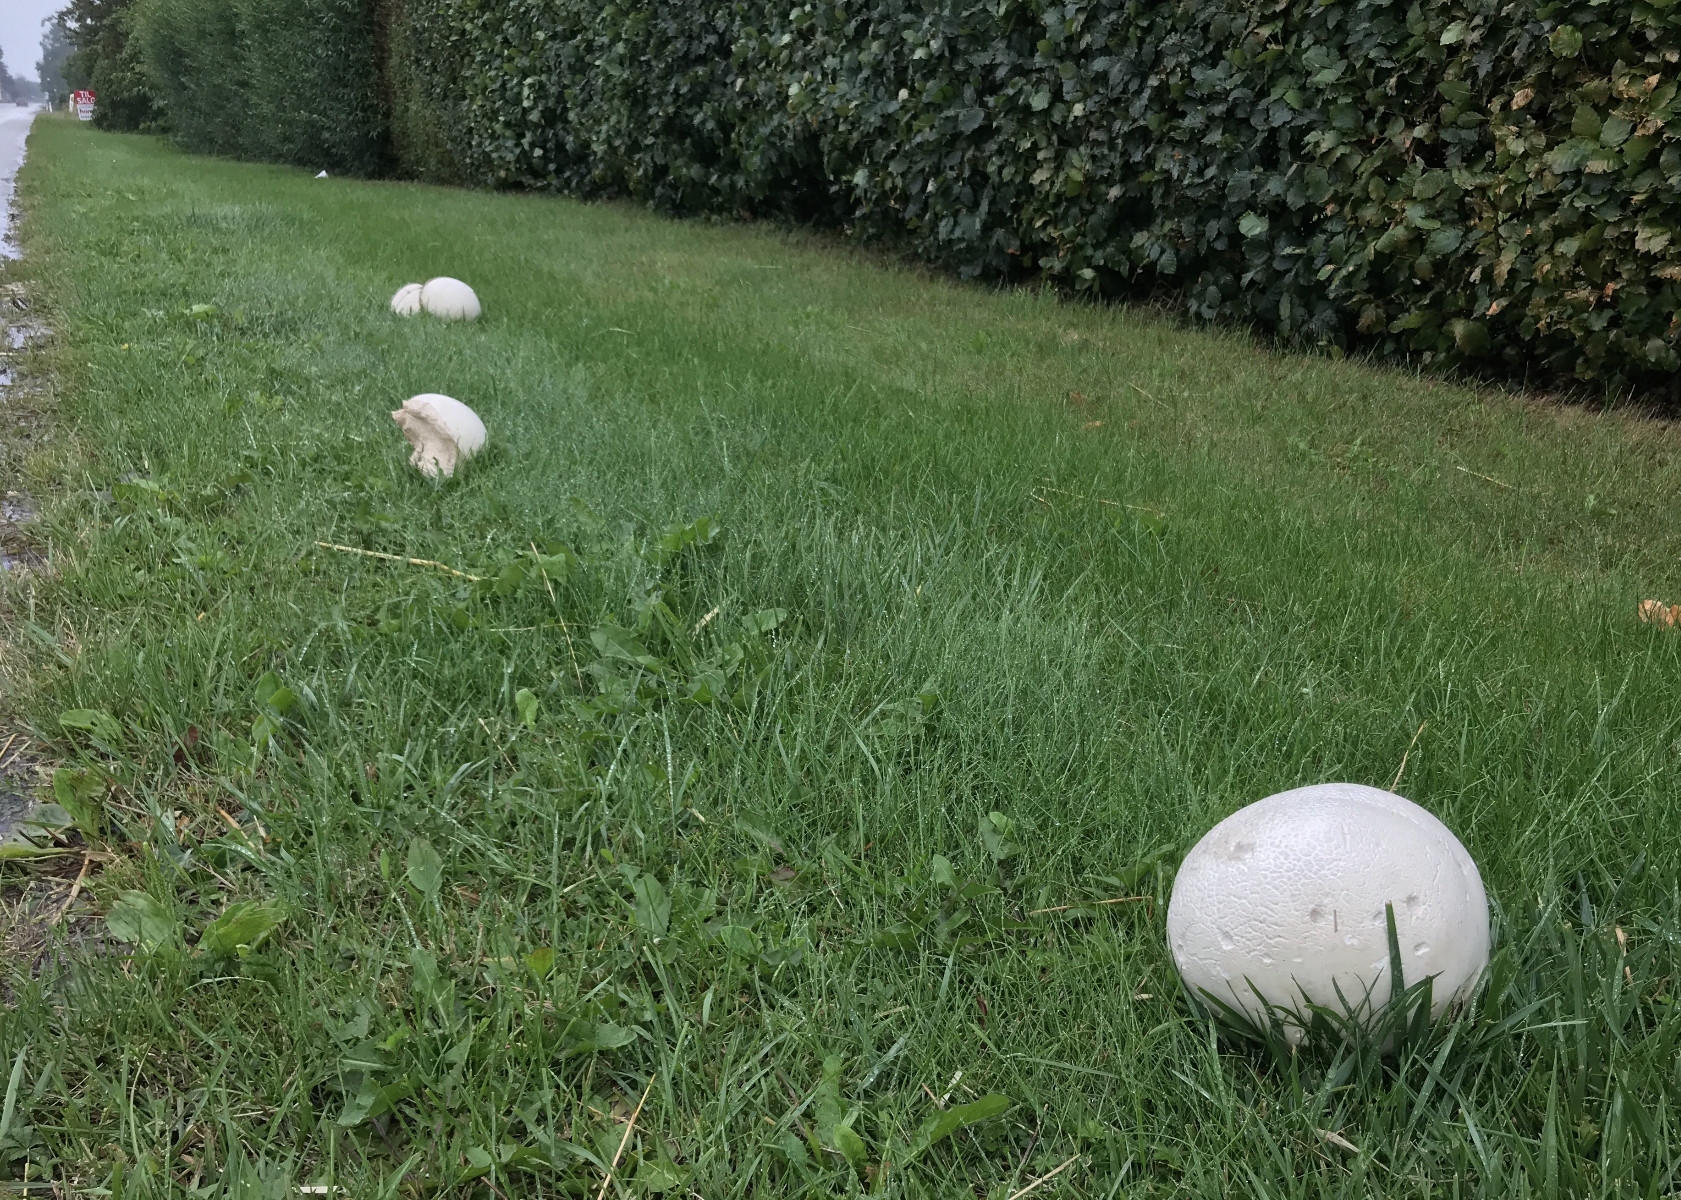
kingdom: Fungi
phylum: Basidiomycota
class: Agaricomycetes
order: Agaricales
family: Lycoperdaceae
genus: Calvatia
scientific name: Calvatia gigantea
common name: kæmpestøvbold
